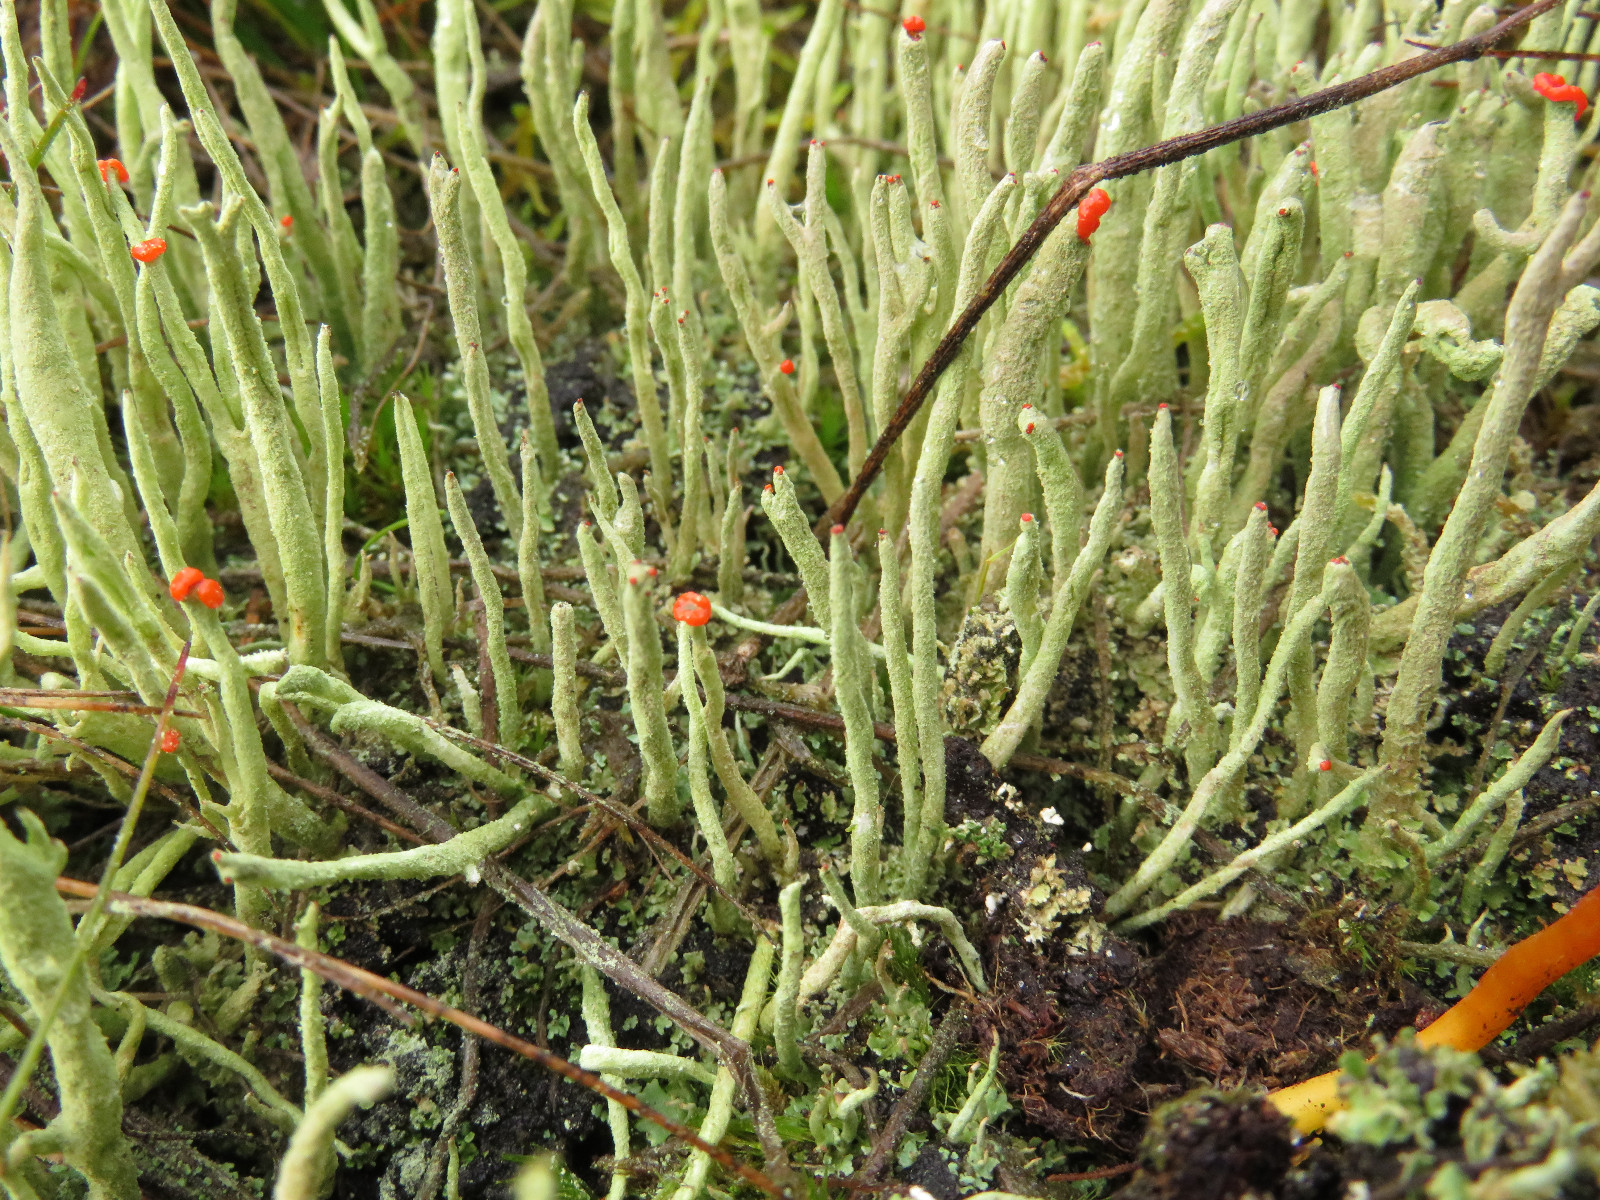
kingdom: Fungi
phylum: Ascomycota
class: Lecanoromycetes
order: Lecanorales
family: Cladoniaceae
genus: Cladonia
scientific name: Cladonia macilenta
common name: indsvunden bægerlav
